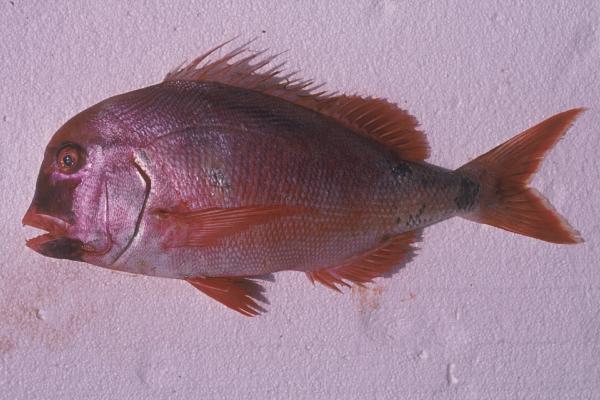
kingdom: Animalia
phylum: Chordata
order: Perciformes
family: Sparidae
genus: Chrysoblephus
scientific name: Chrysoblephus anglicus
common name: Englishman
